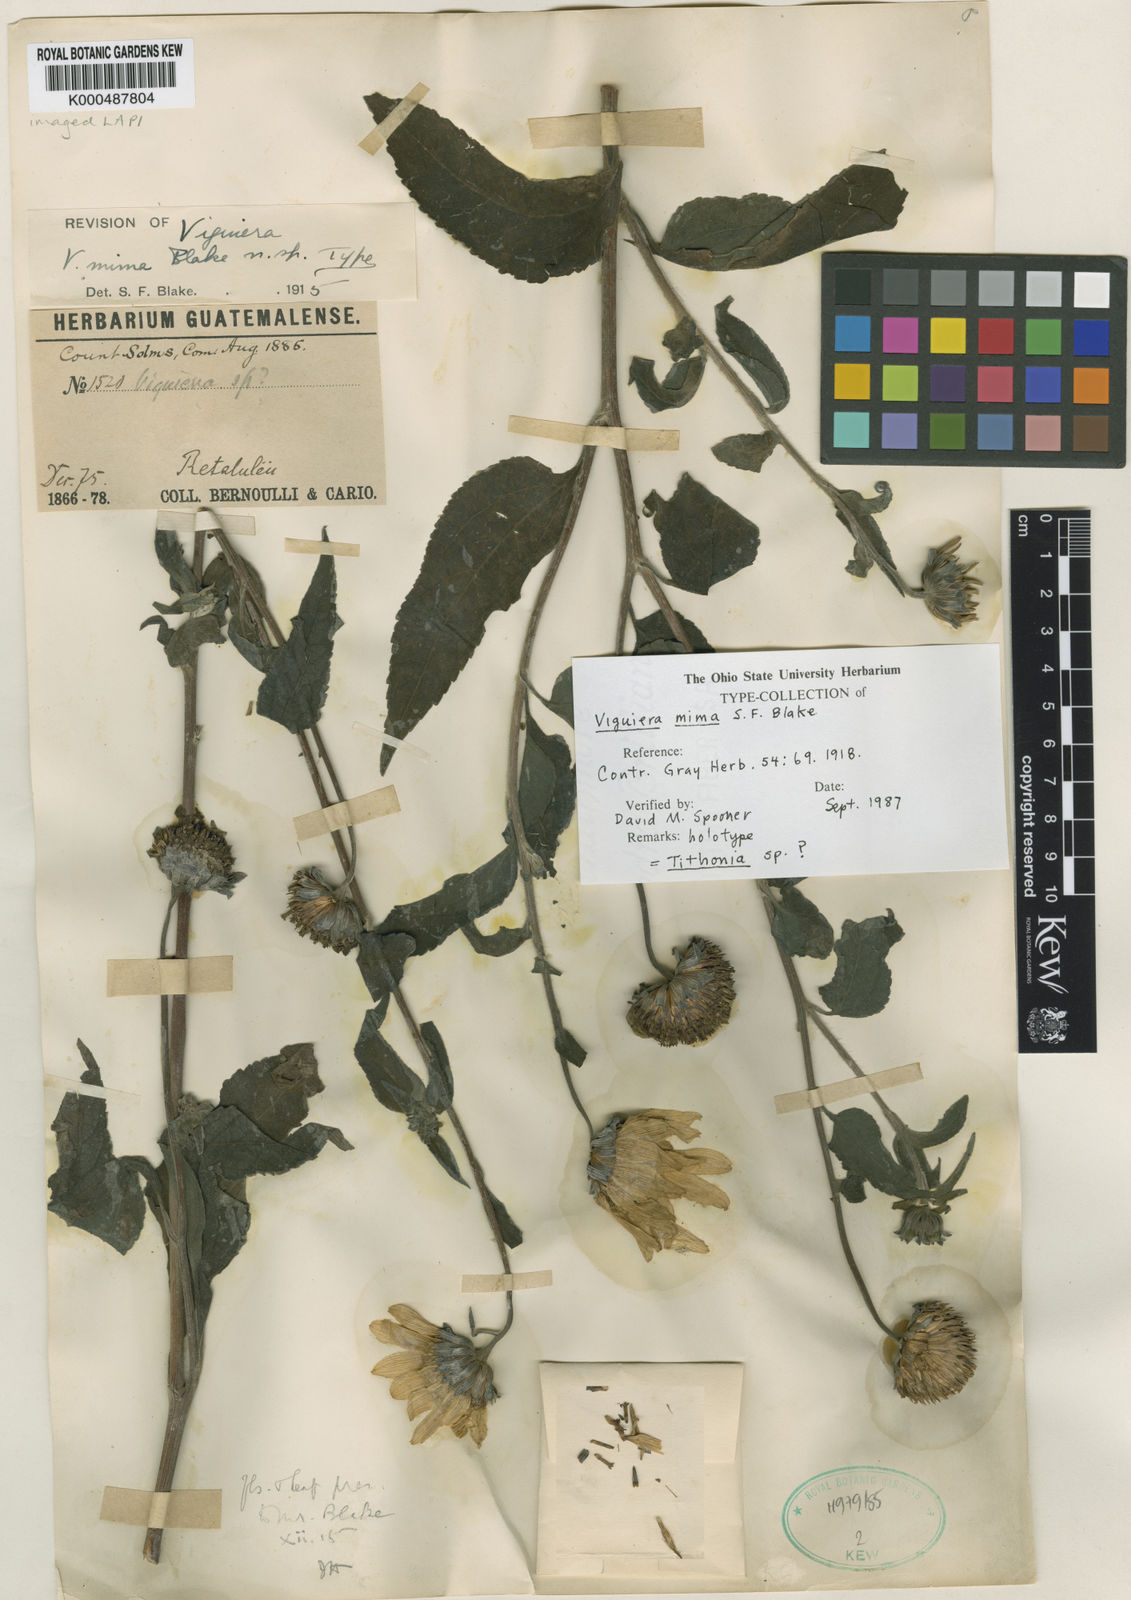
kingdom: Plantae
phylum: Tracheophyta
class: Magnoliopsida
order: Asterales
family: Asteraceae
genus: Viguiera
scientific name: Viguiera mima
